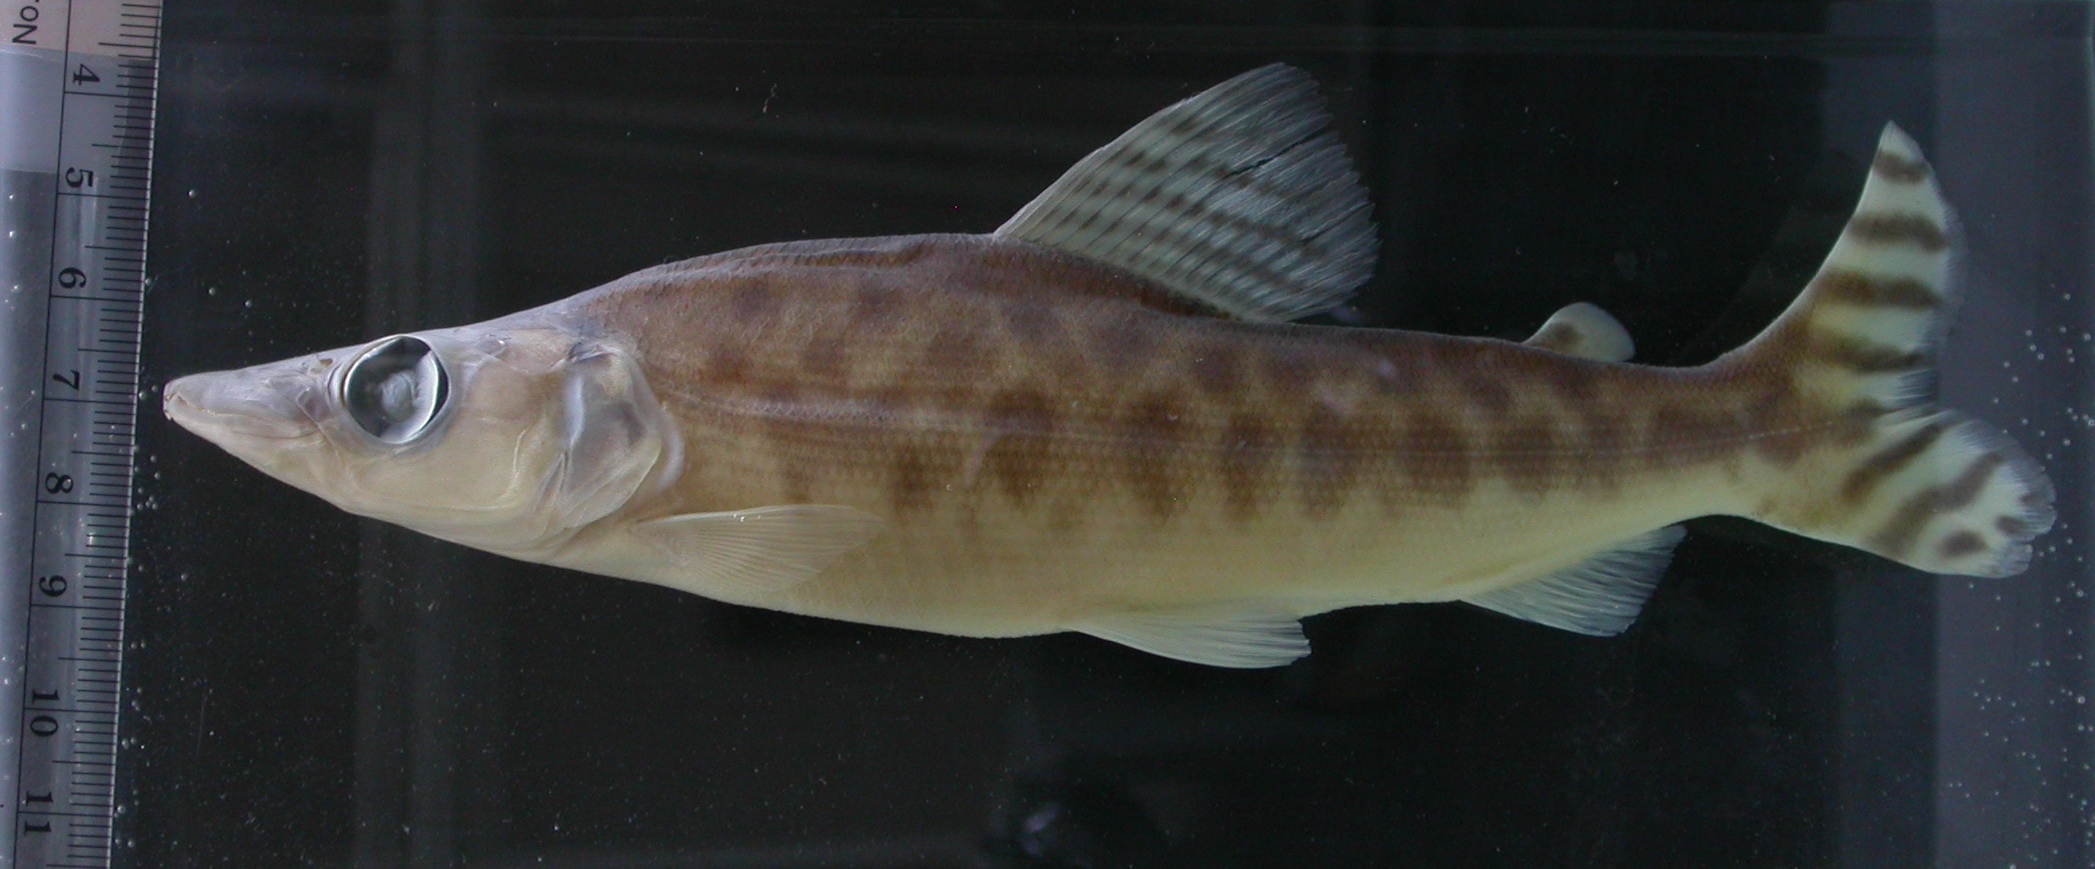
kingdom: Animalia
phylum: Chordata
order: Characiformes
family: Distichodontidae
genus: Mesoborus
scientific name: Mesoborus crocodilus
